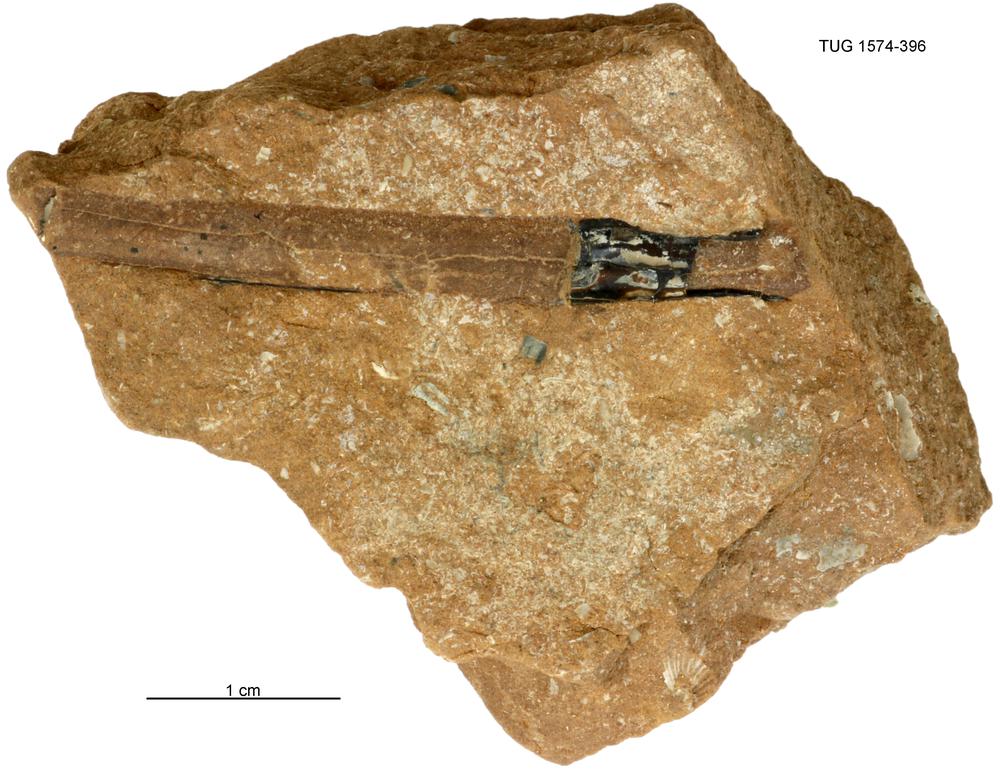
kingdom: Animalia
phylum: Cnidaria
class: Scyphozoa
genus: Sphenothallus
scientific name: Sphenothallus
